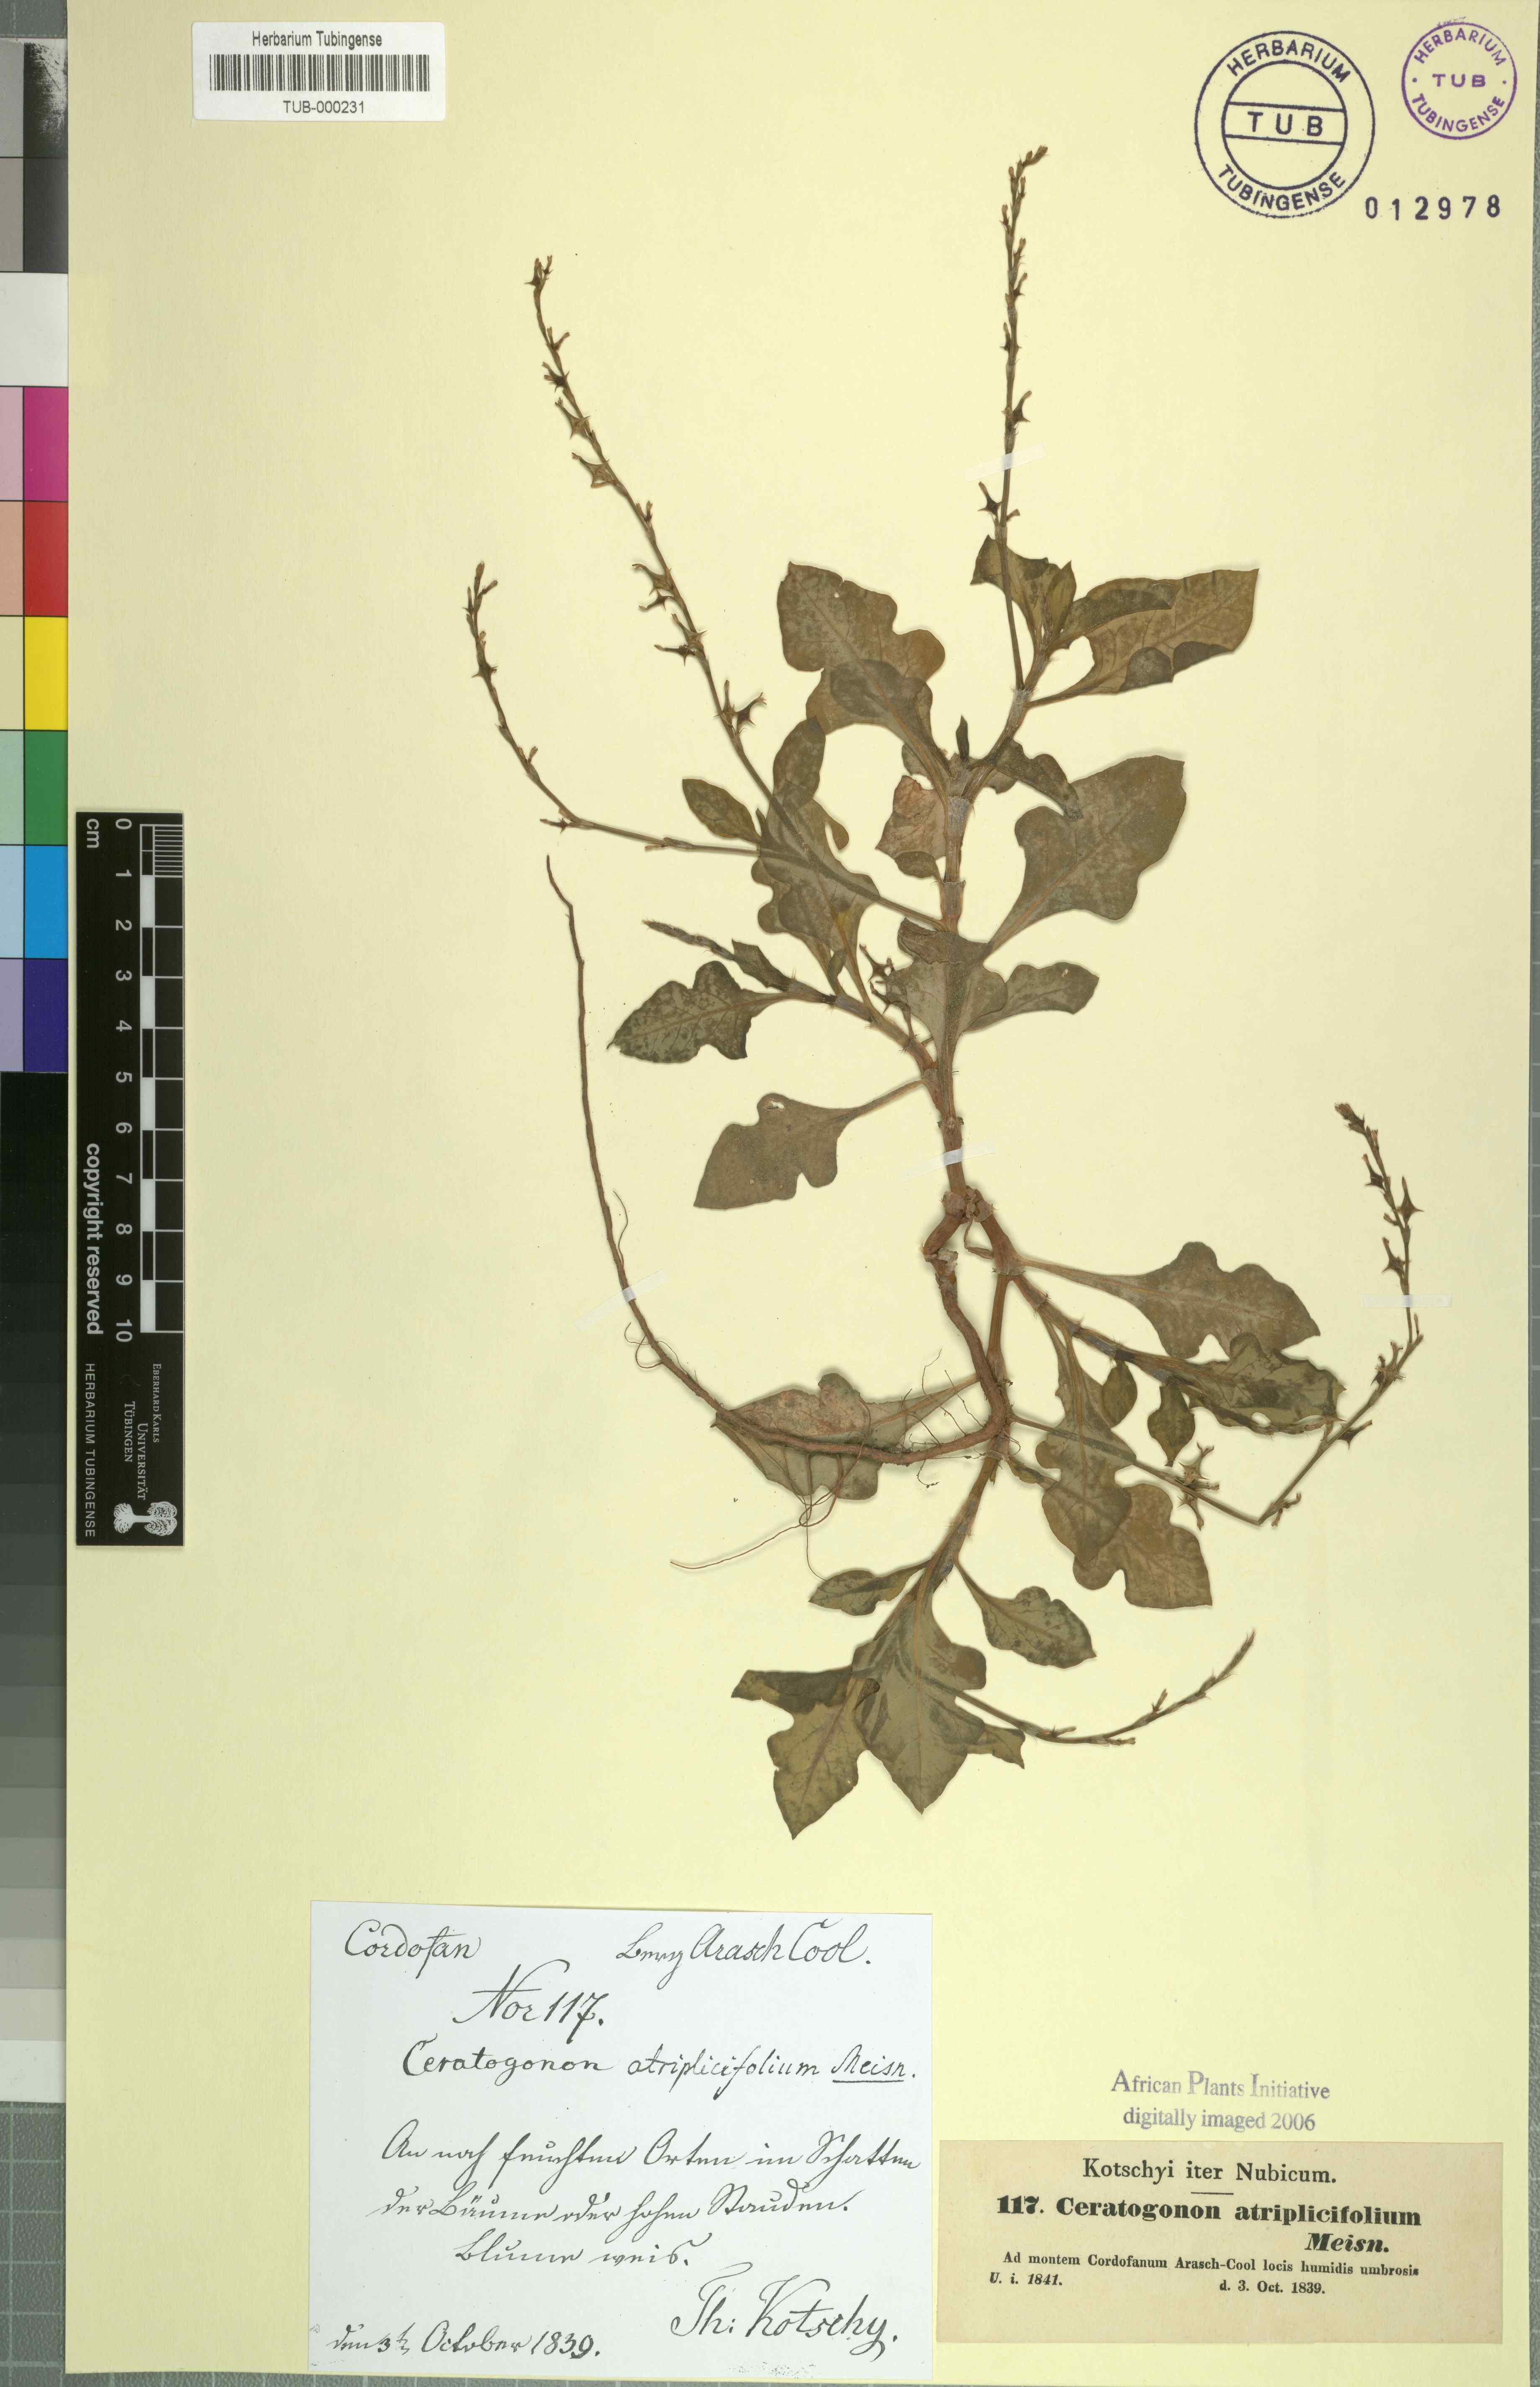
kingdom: Plantae
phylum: Tracheophyta
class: Magnoliopsida
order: Caryophyllales
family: Polygonaceae
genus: Oxygonum
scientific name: Oxygonum atriplicifolium
